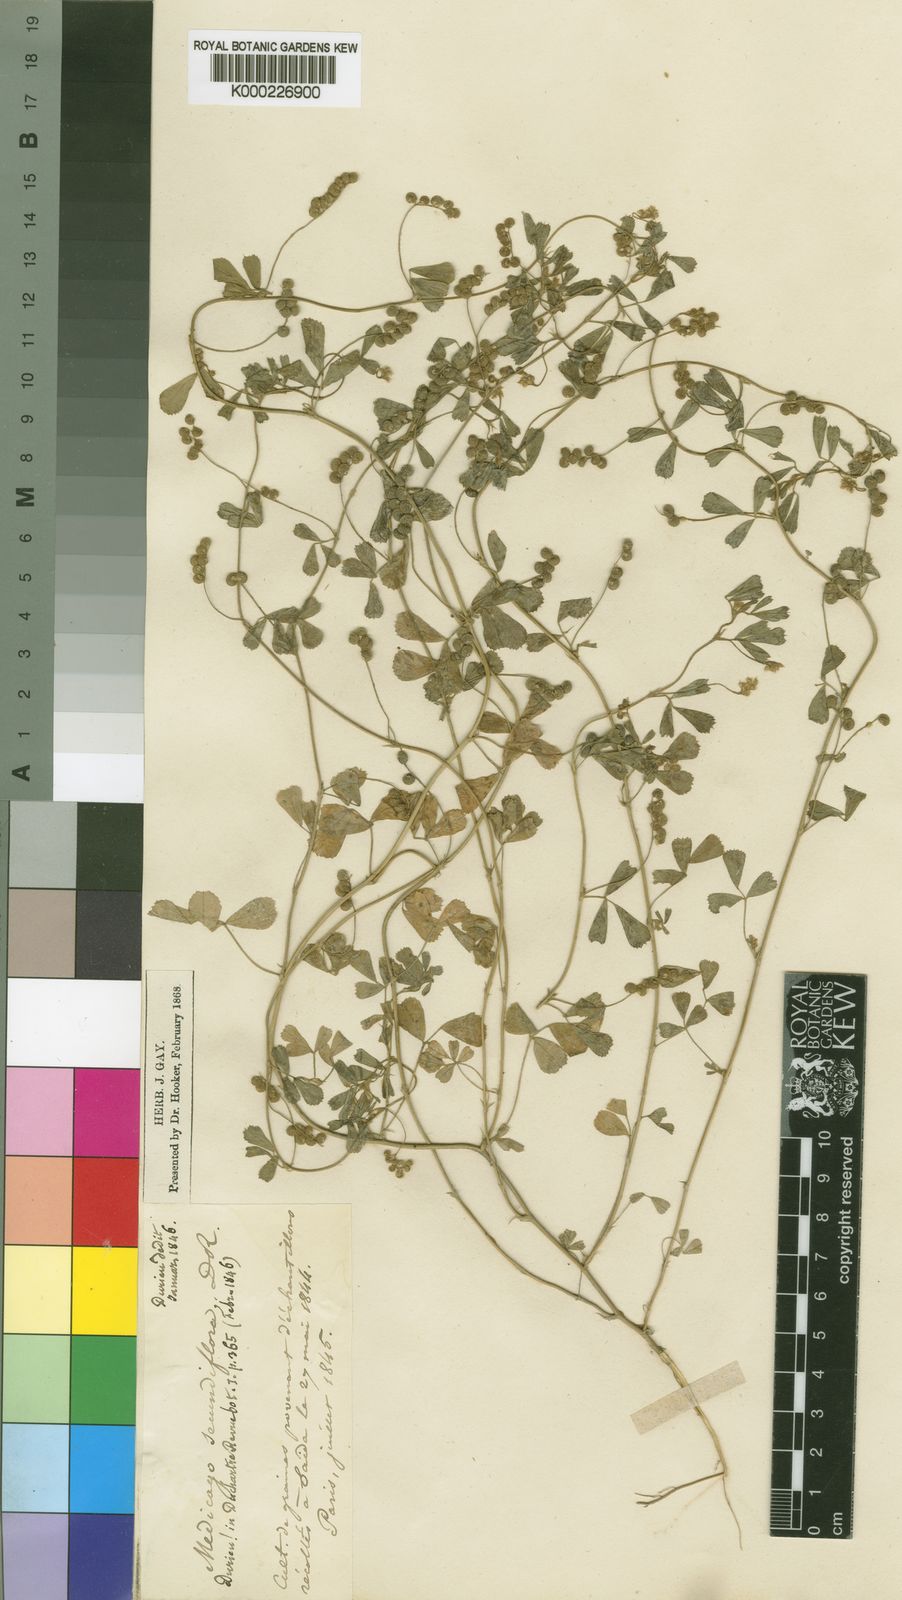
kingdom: Plantae
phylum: Tracheophyta
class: Magnoliopsida
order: Fabales
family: Fabaceae
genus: Medicago
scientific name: Medicago
